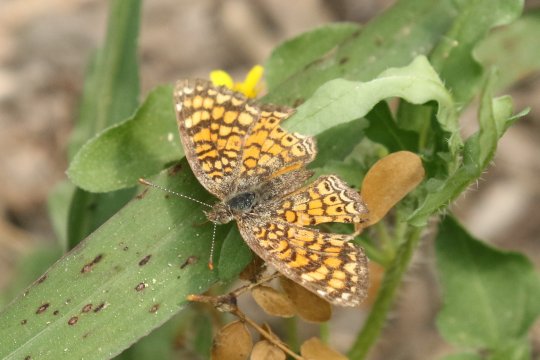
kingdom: Animalia
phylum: Arthropoda
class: Insecta
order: Lepidoptera
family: Nymphalidae
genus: Phyciodes
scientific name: Phyciodes vesta
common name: Vesta Crescent
